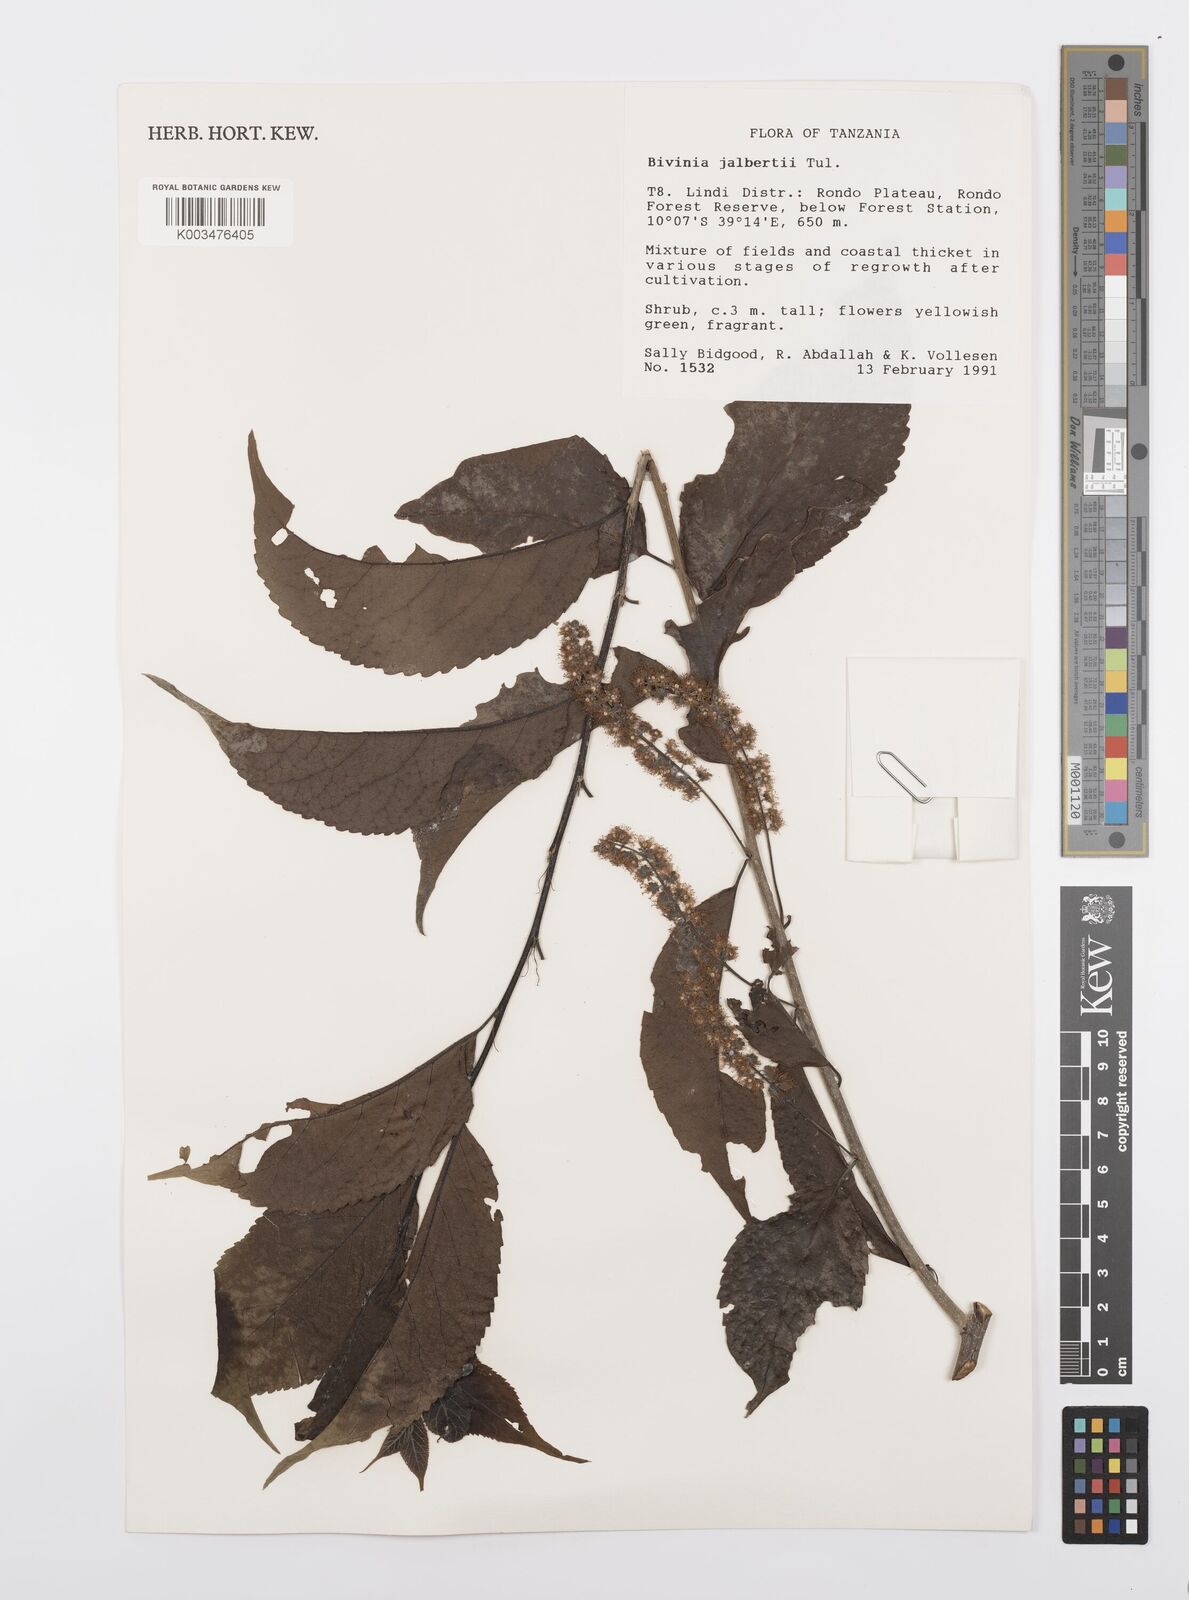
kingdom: Plantae
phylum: Tracheophyta
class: Magnoliopsida
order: Malpighiales
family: Salicaceae
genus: Bivinia
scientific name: Bivinia jalbertii
